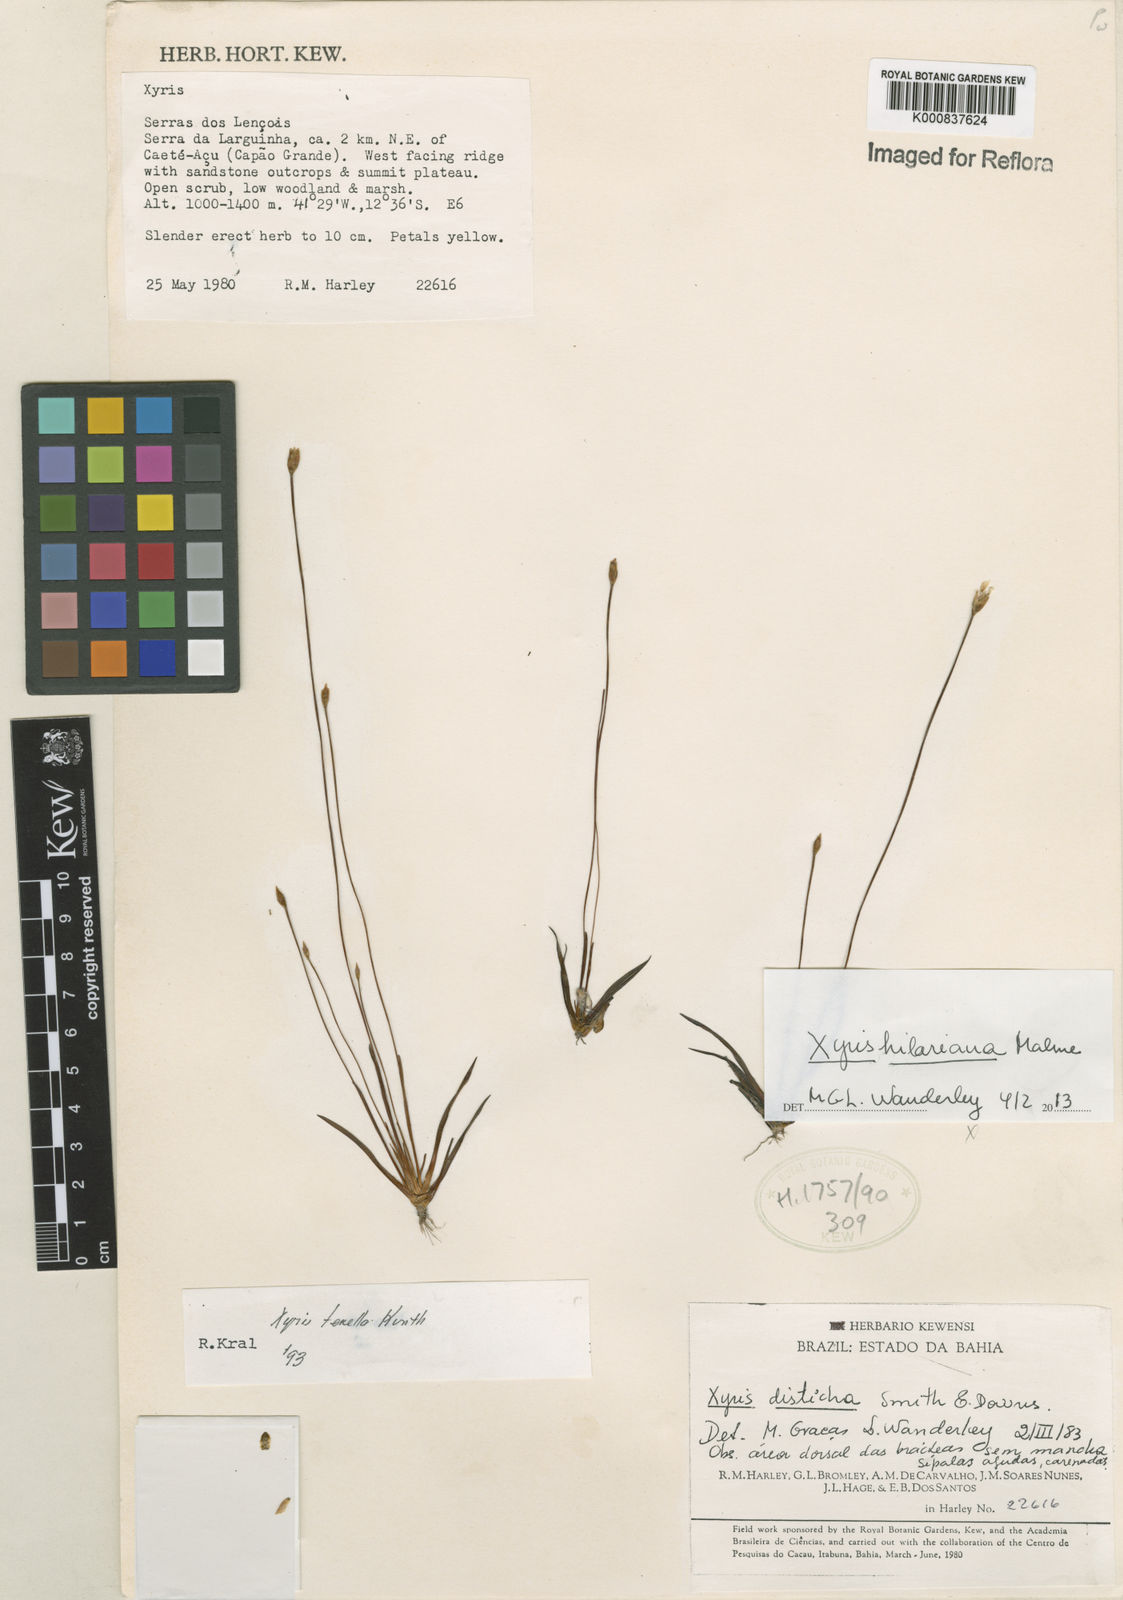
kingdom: Plantae
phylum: Tracheophyta
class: Liliopsida
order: Poales
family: Xyridaceae
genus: Xyris
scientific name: Xyris hilariana
